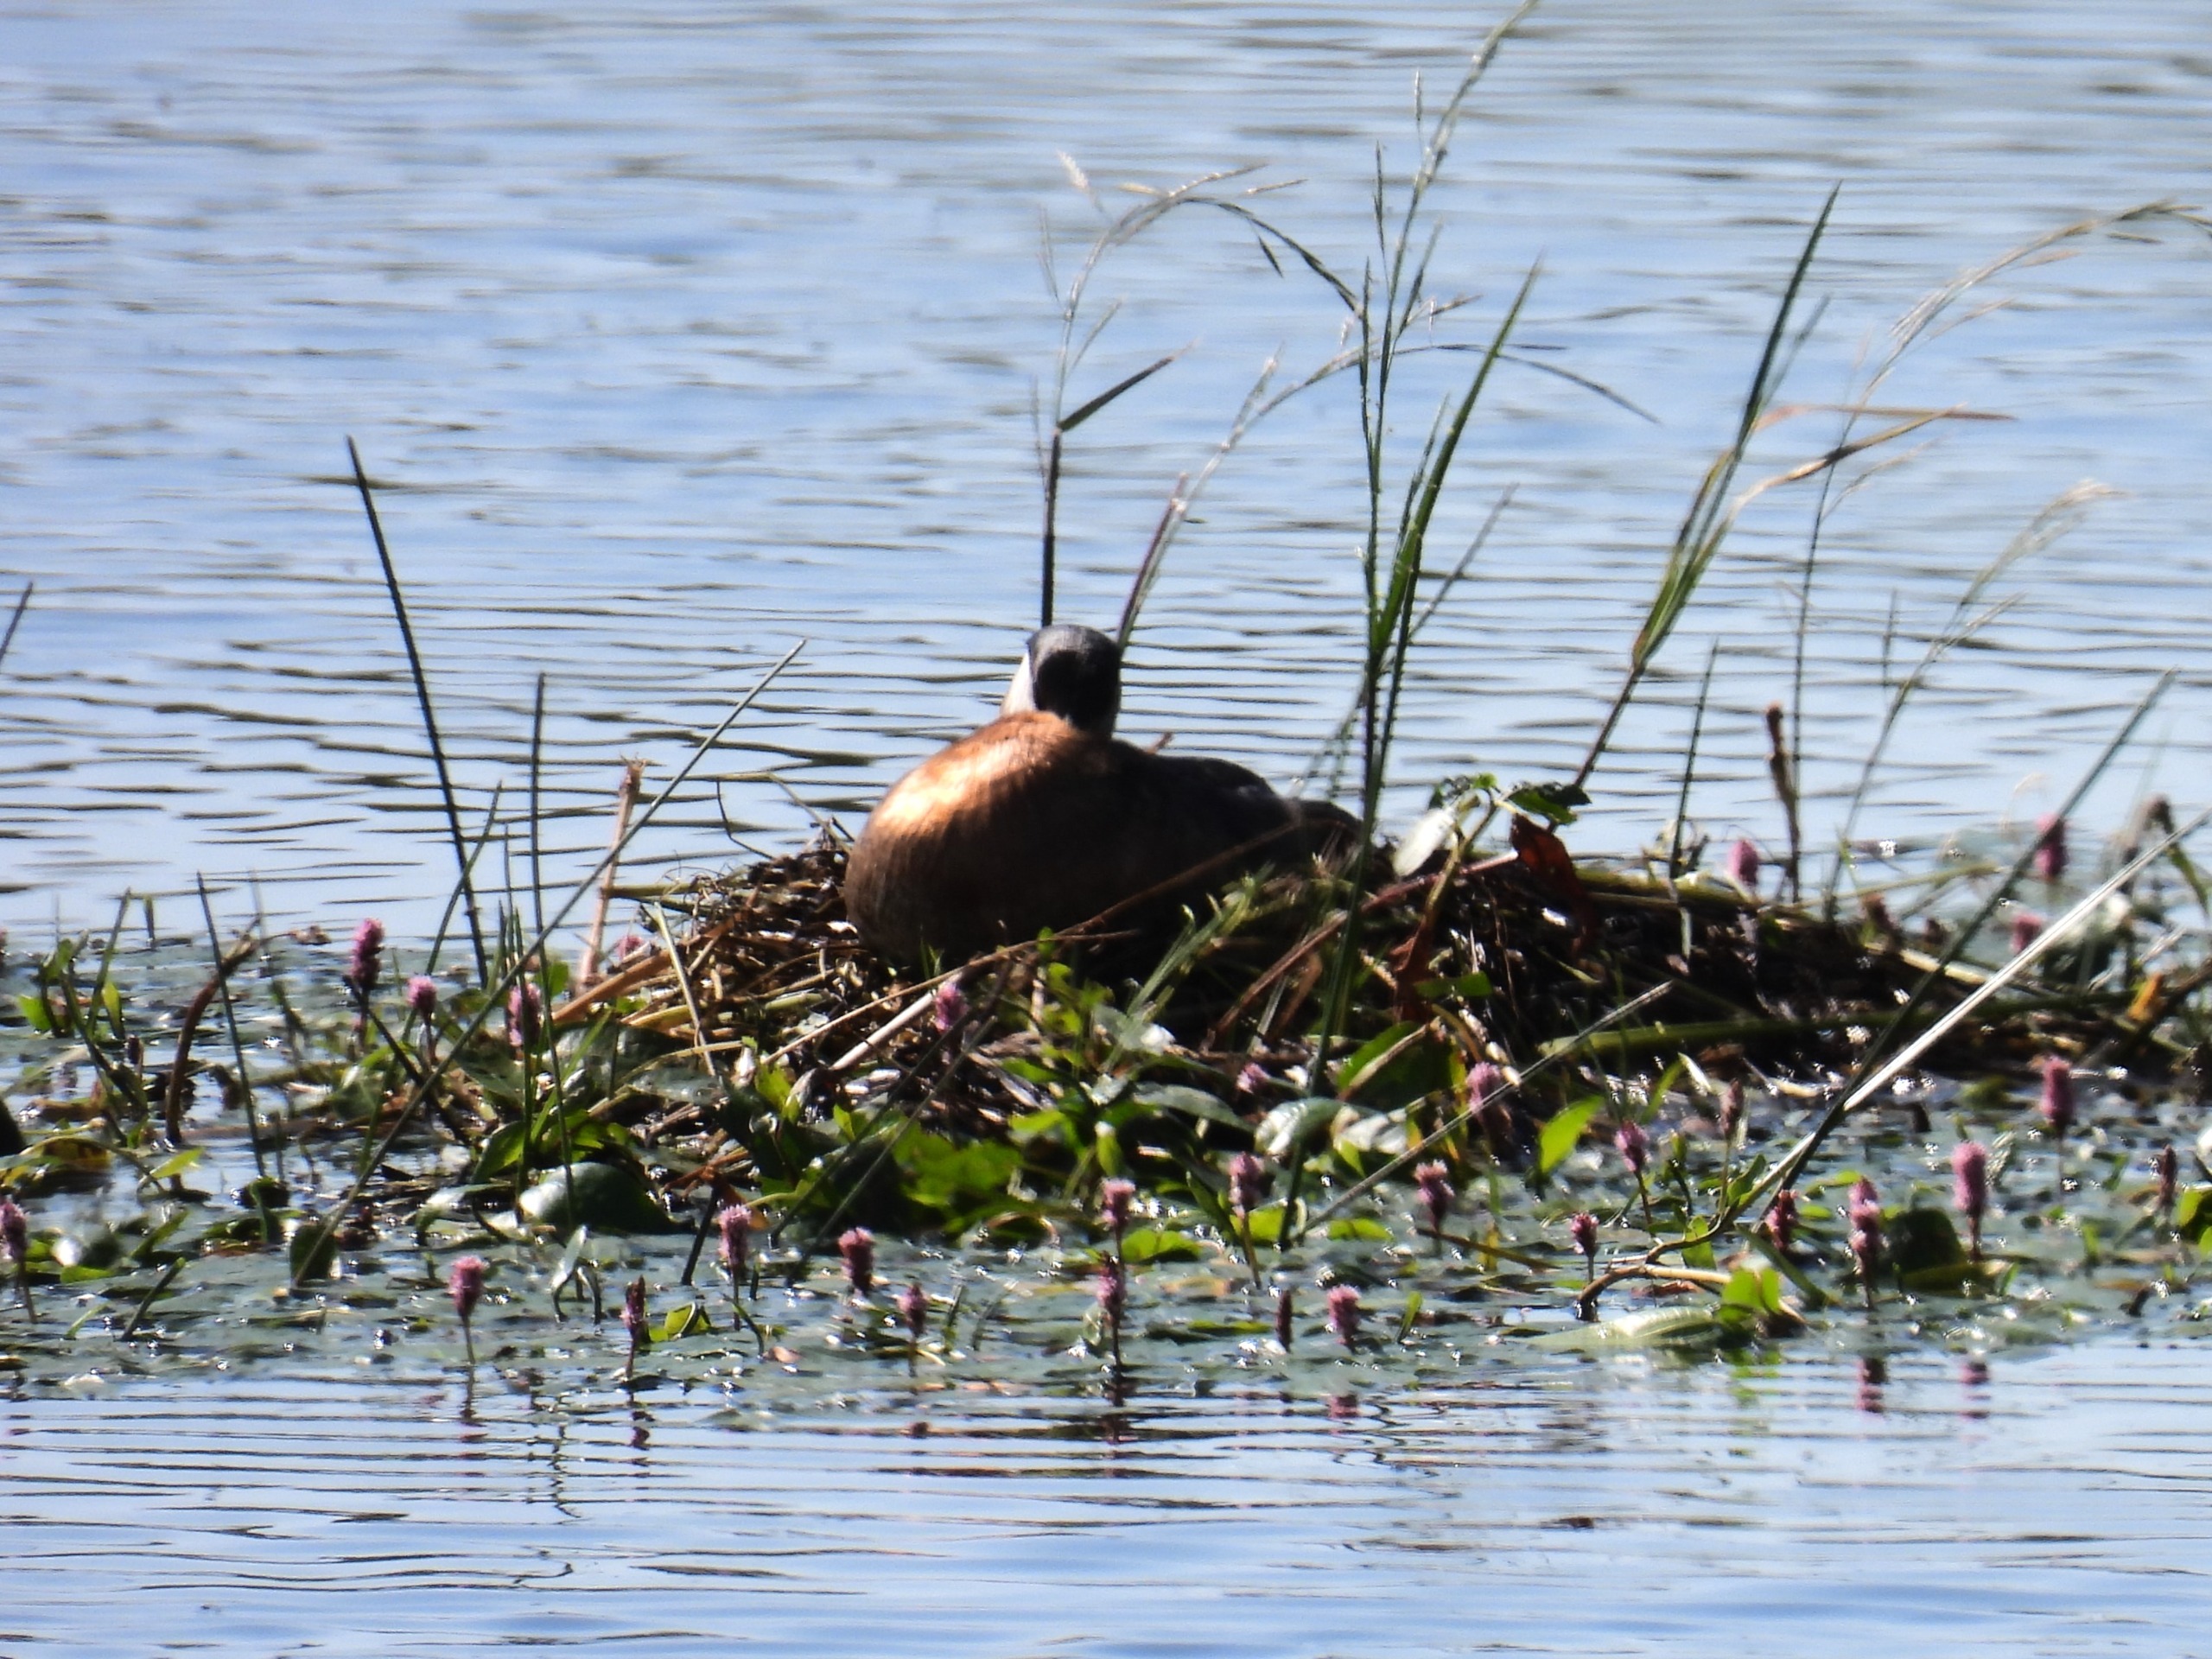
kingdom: Animalia
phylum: Chordata
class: Aves
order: Podicipediformes
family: Podicipedidae
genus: Podiceps
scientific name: Podiceps grisegena
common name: Gråstrubet lappedykker
